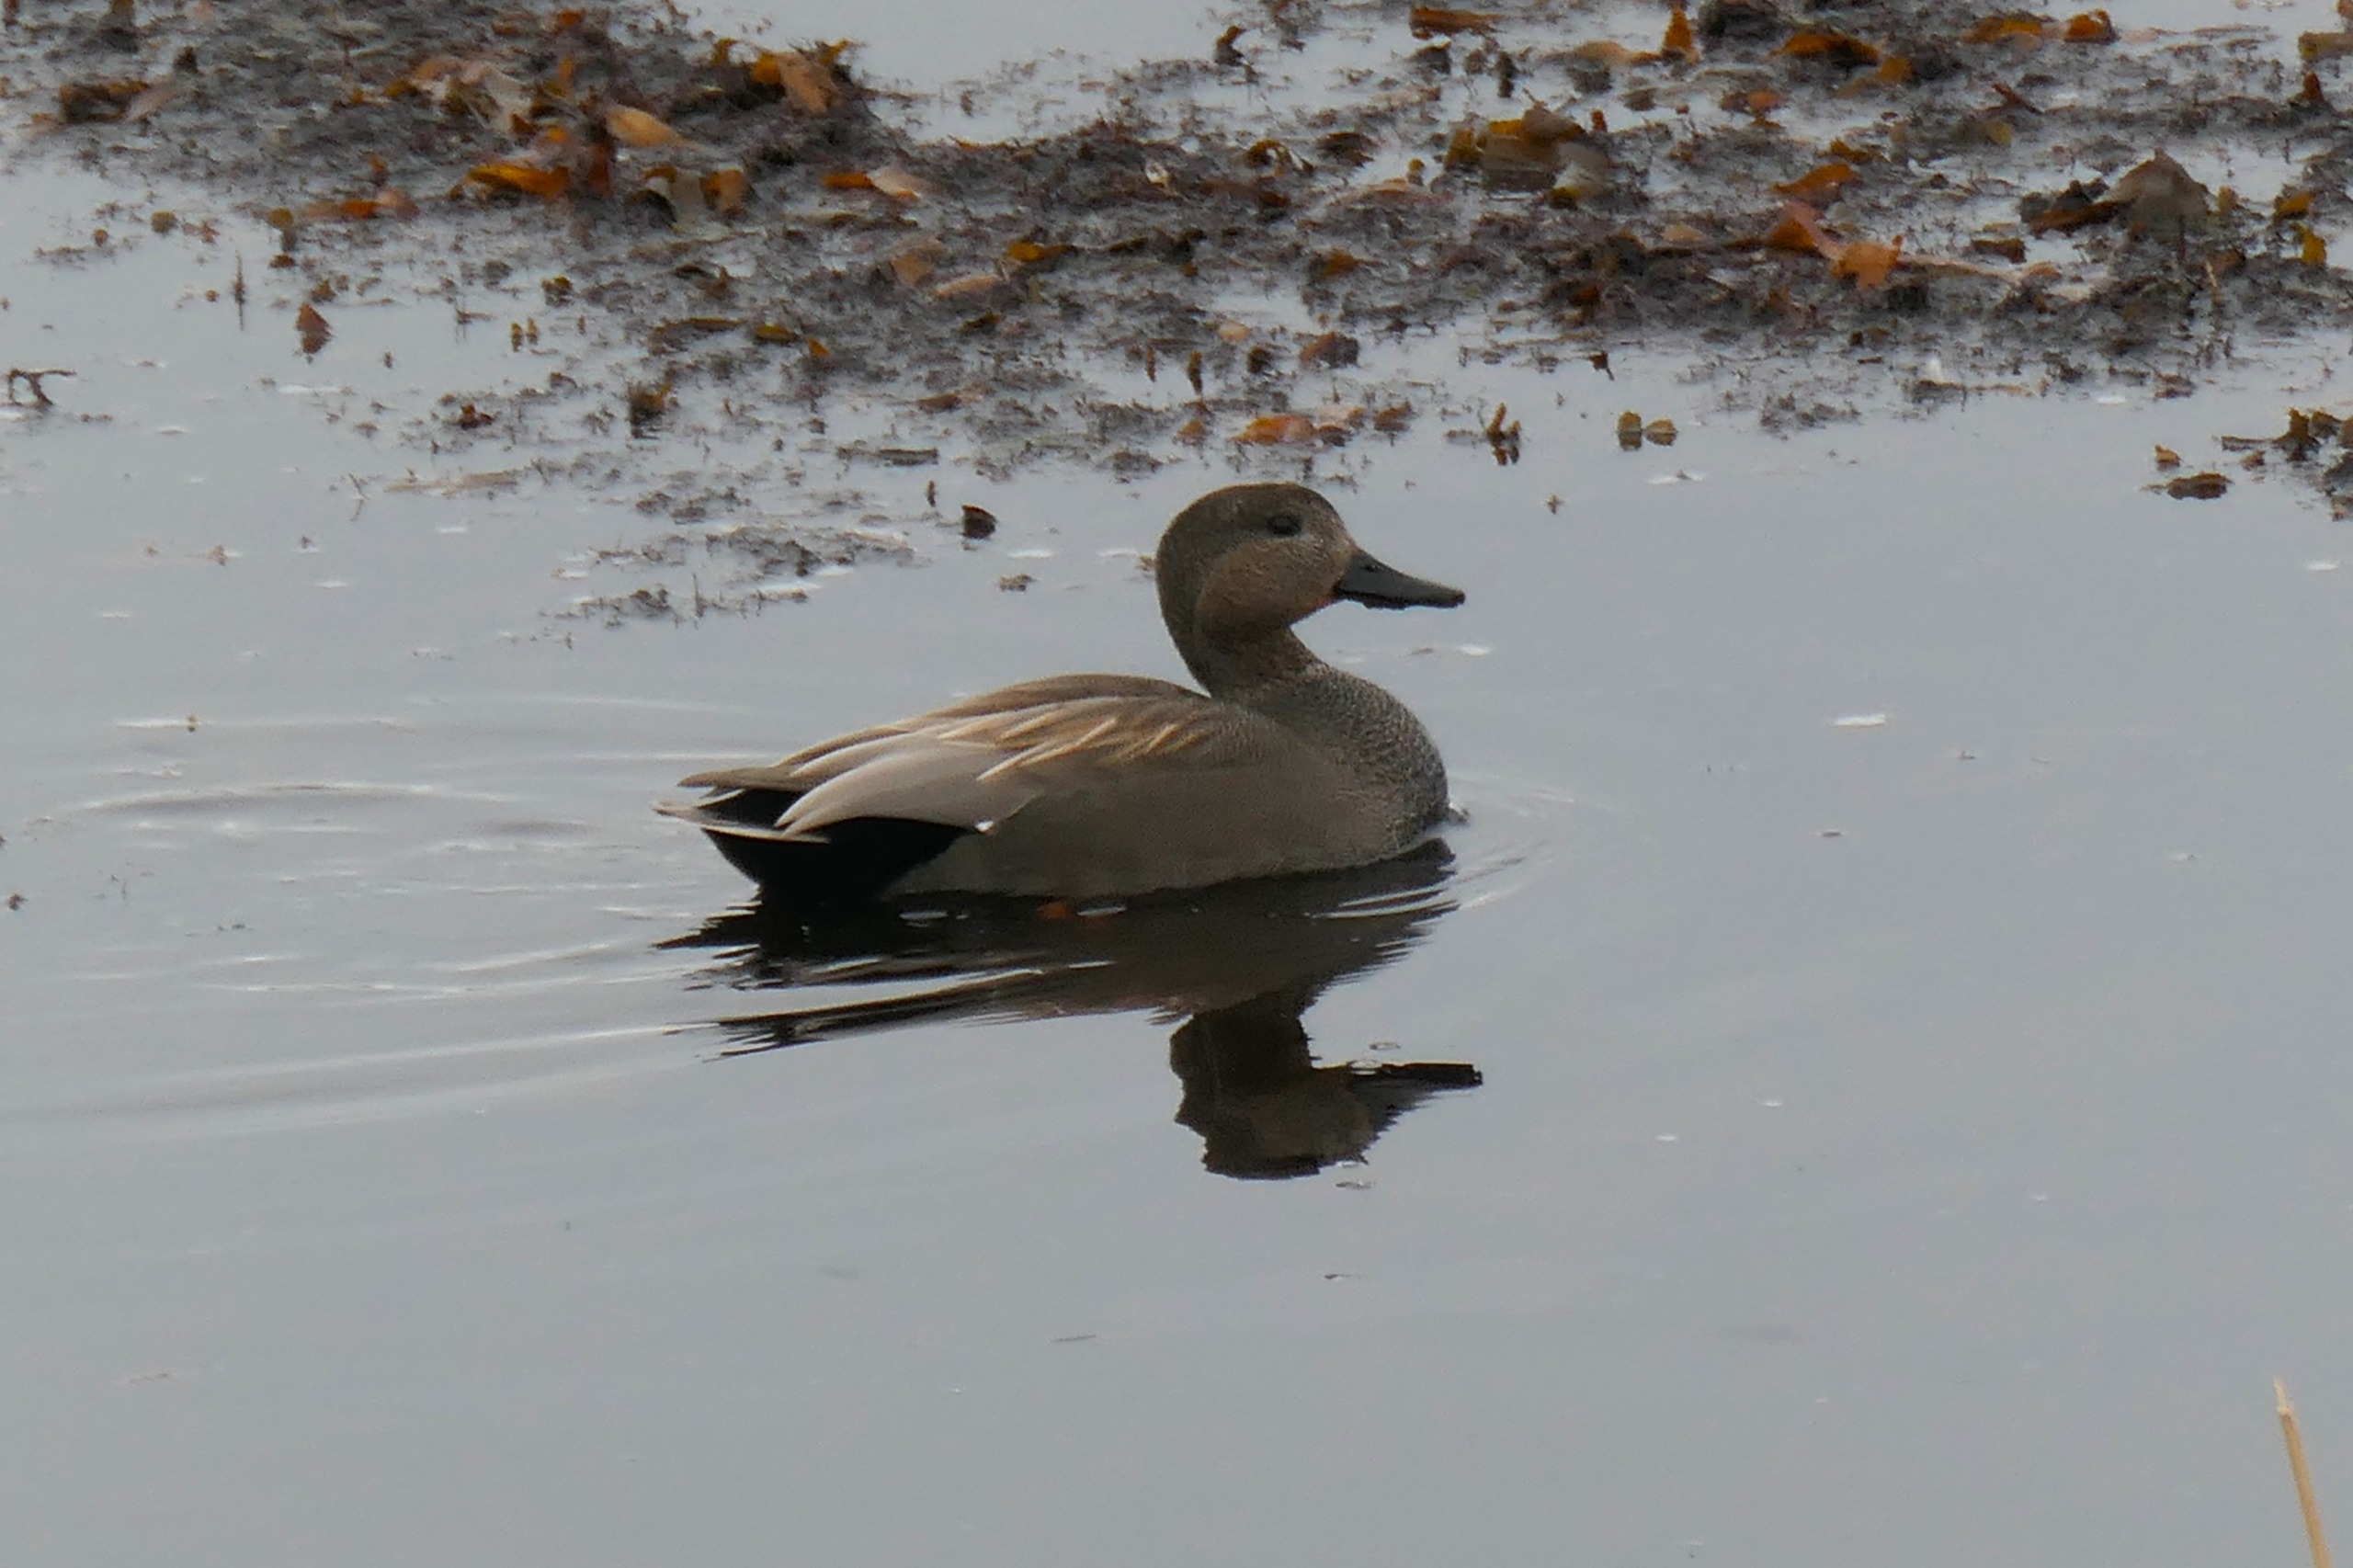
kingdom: Animalia
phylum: Chordata
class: Aves
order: Anseriformes
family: Anatidae
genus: Mareca
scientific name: Mareca strepera
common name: Knarand
